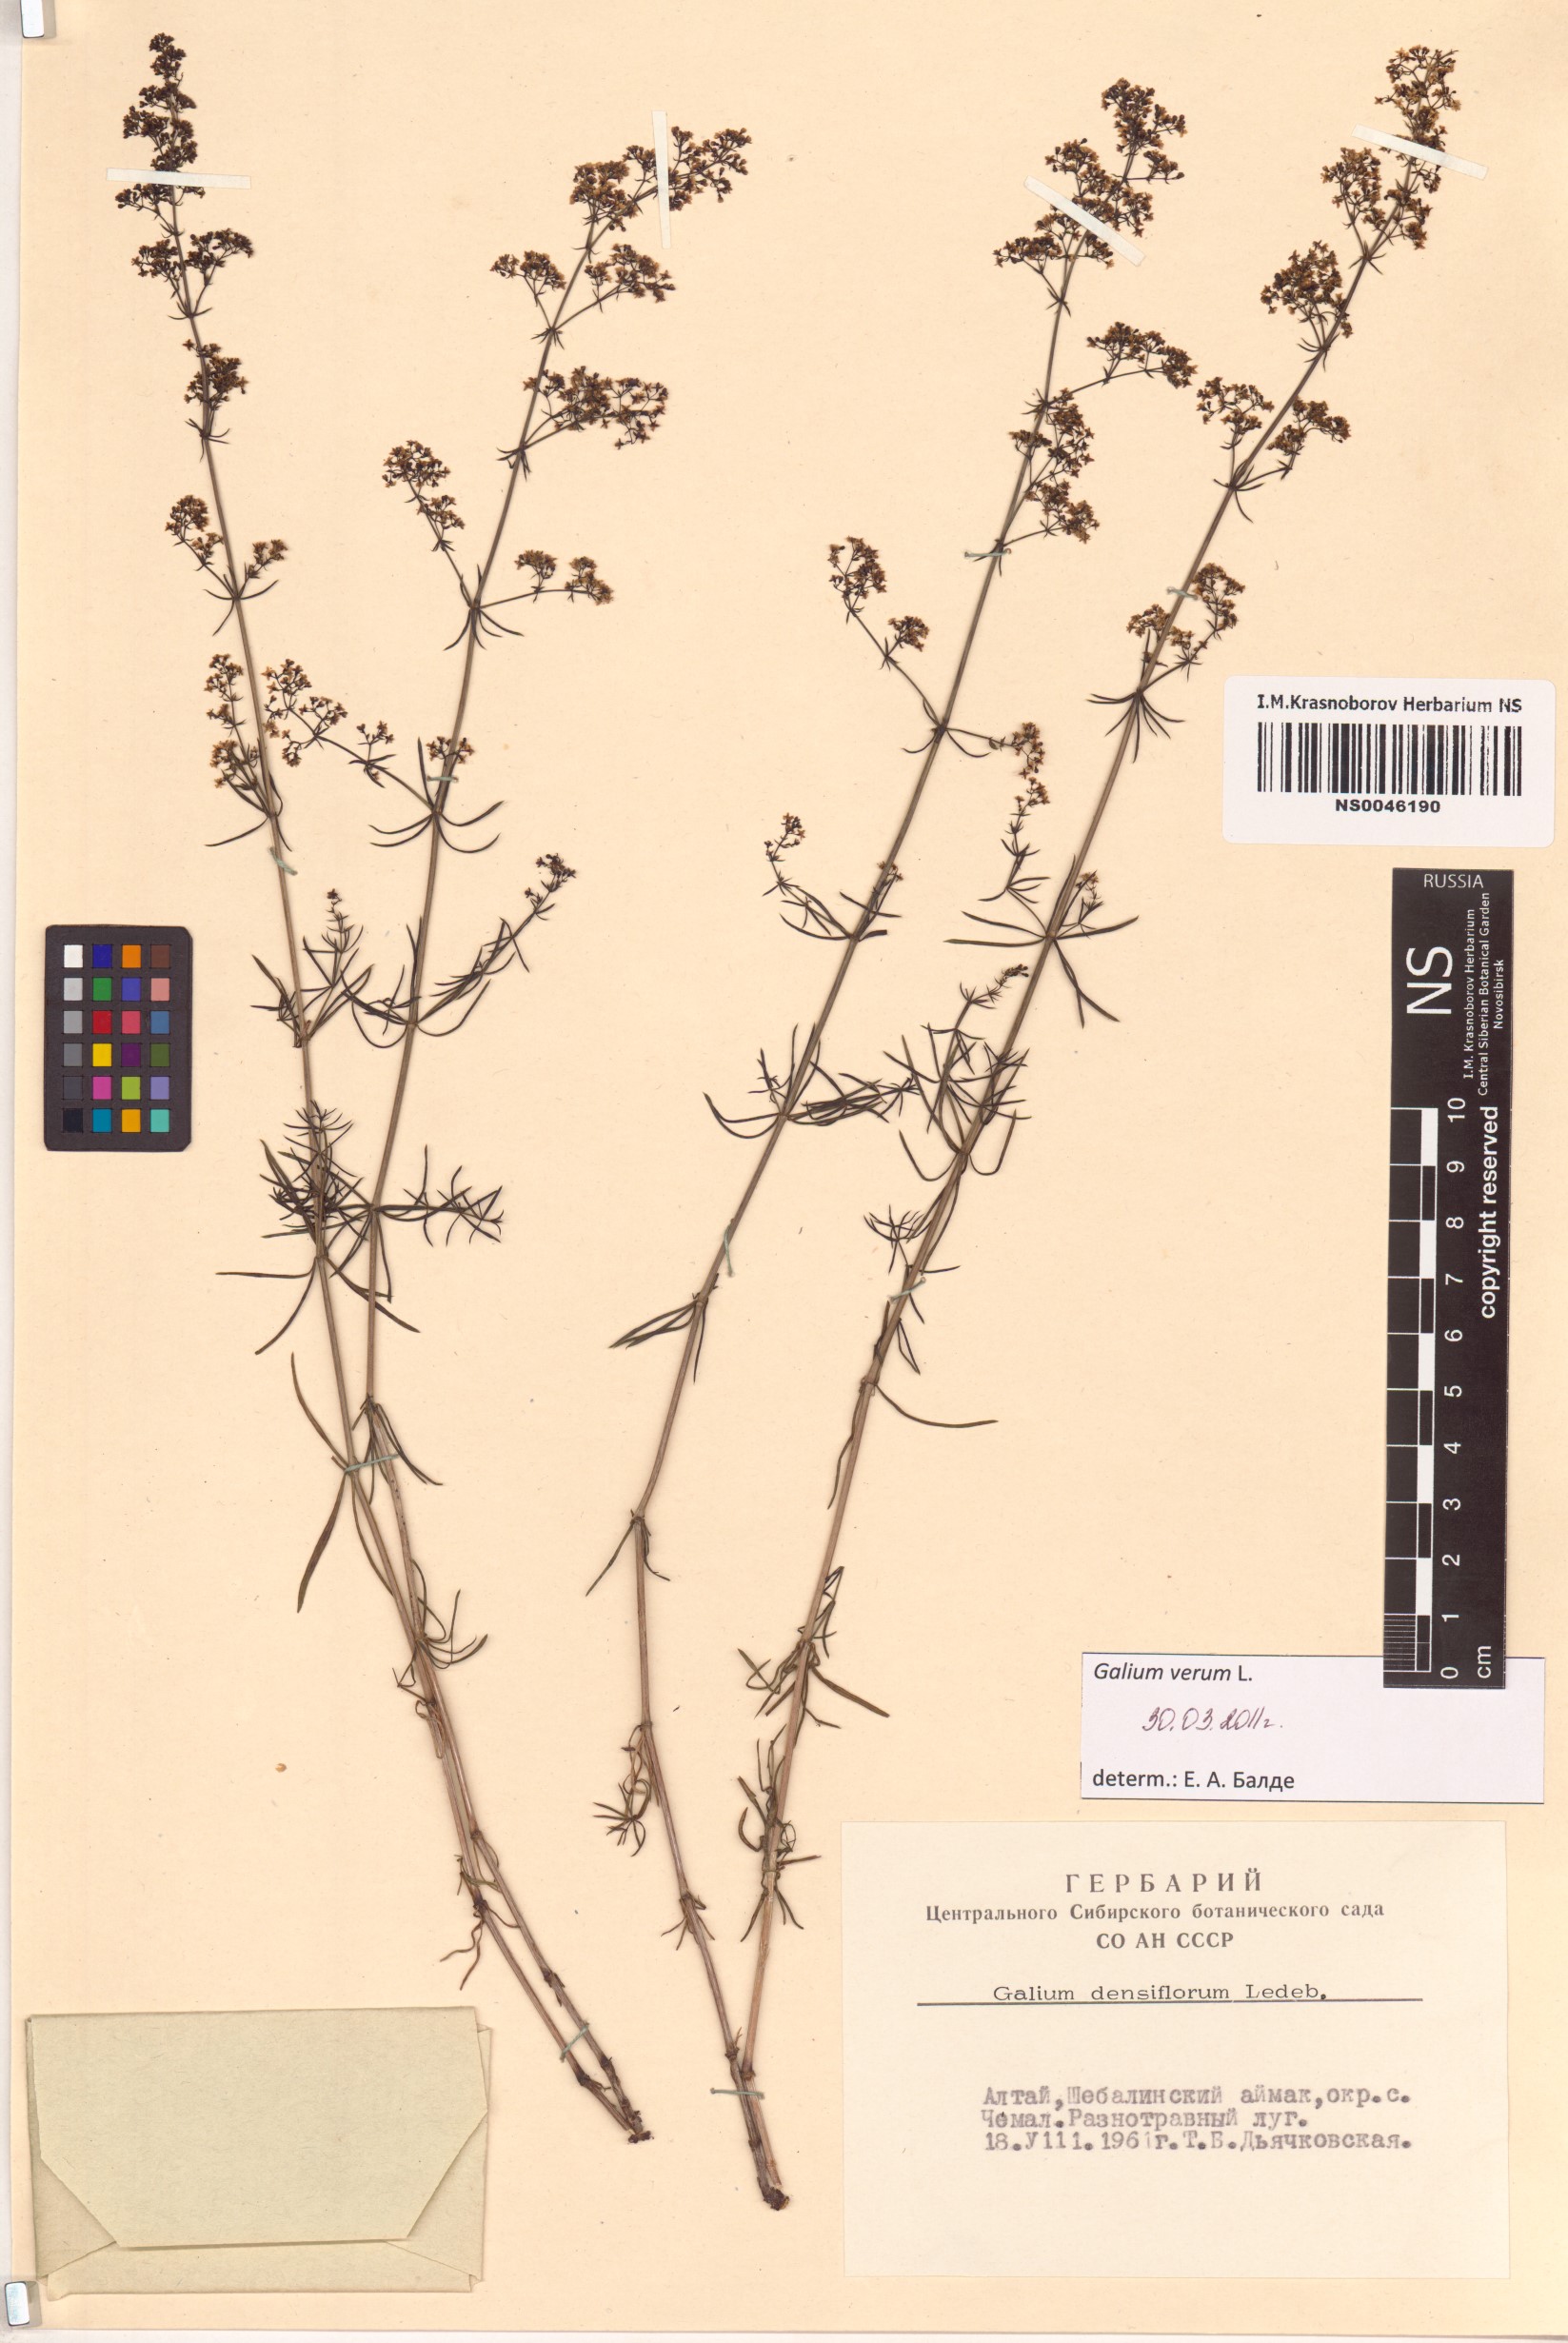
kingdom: Plantae
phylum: Tracheophyta
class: Magnoliopsida
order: Gentianales
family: Rubiaceae
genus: Galium
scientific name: Galium verum
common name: Lady's bedstraw
